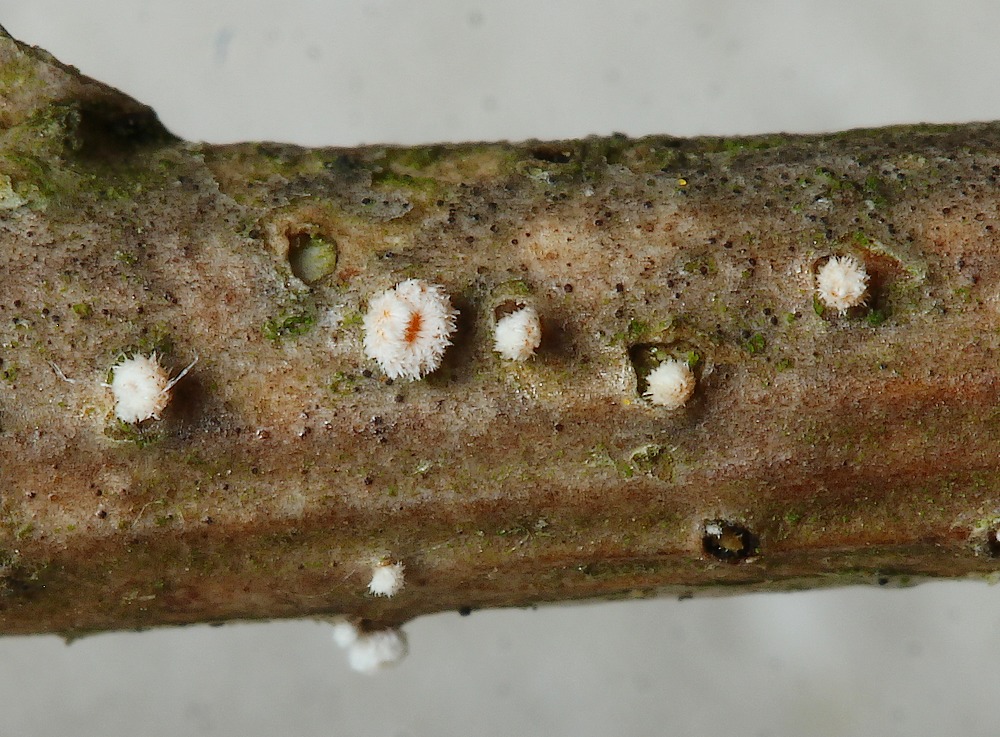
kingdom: Fungi
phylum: Ascomycota
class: Leotiomycetes
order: Helotiales
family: Lachnaceae
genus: Capitotricha
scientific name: Capitotricha bicolor
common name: prægtig frynseskive
